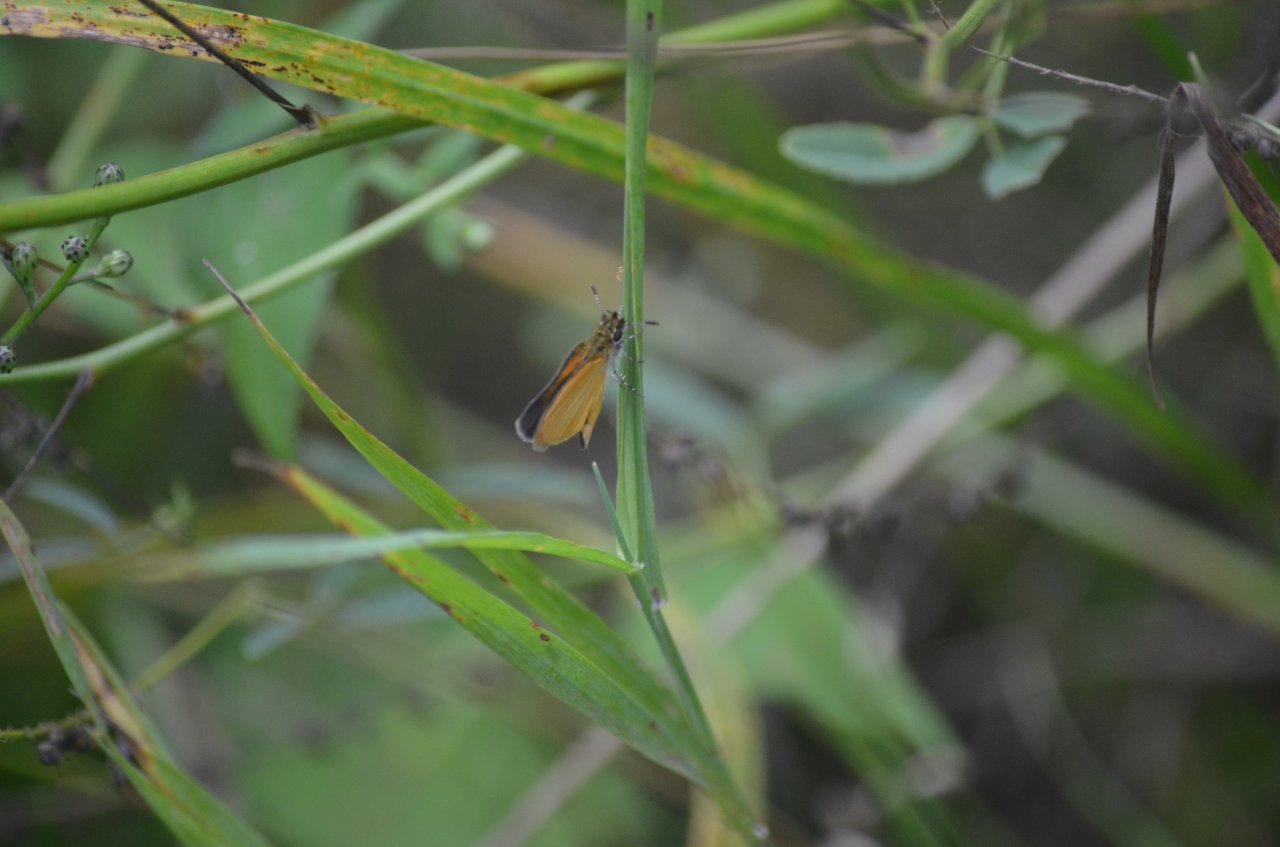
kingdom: Animalia
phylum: Arthropoda
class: Insecta
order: Lepidoptera
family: Hesperiidae
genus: Ancyloxypha
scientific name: Ancyloxypha numitor
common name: Least Skipper
